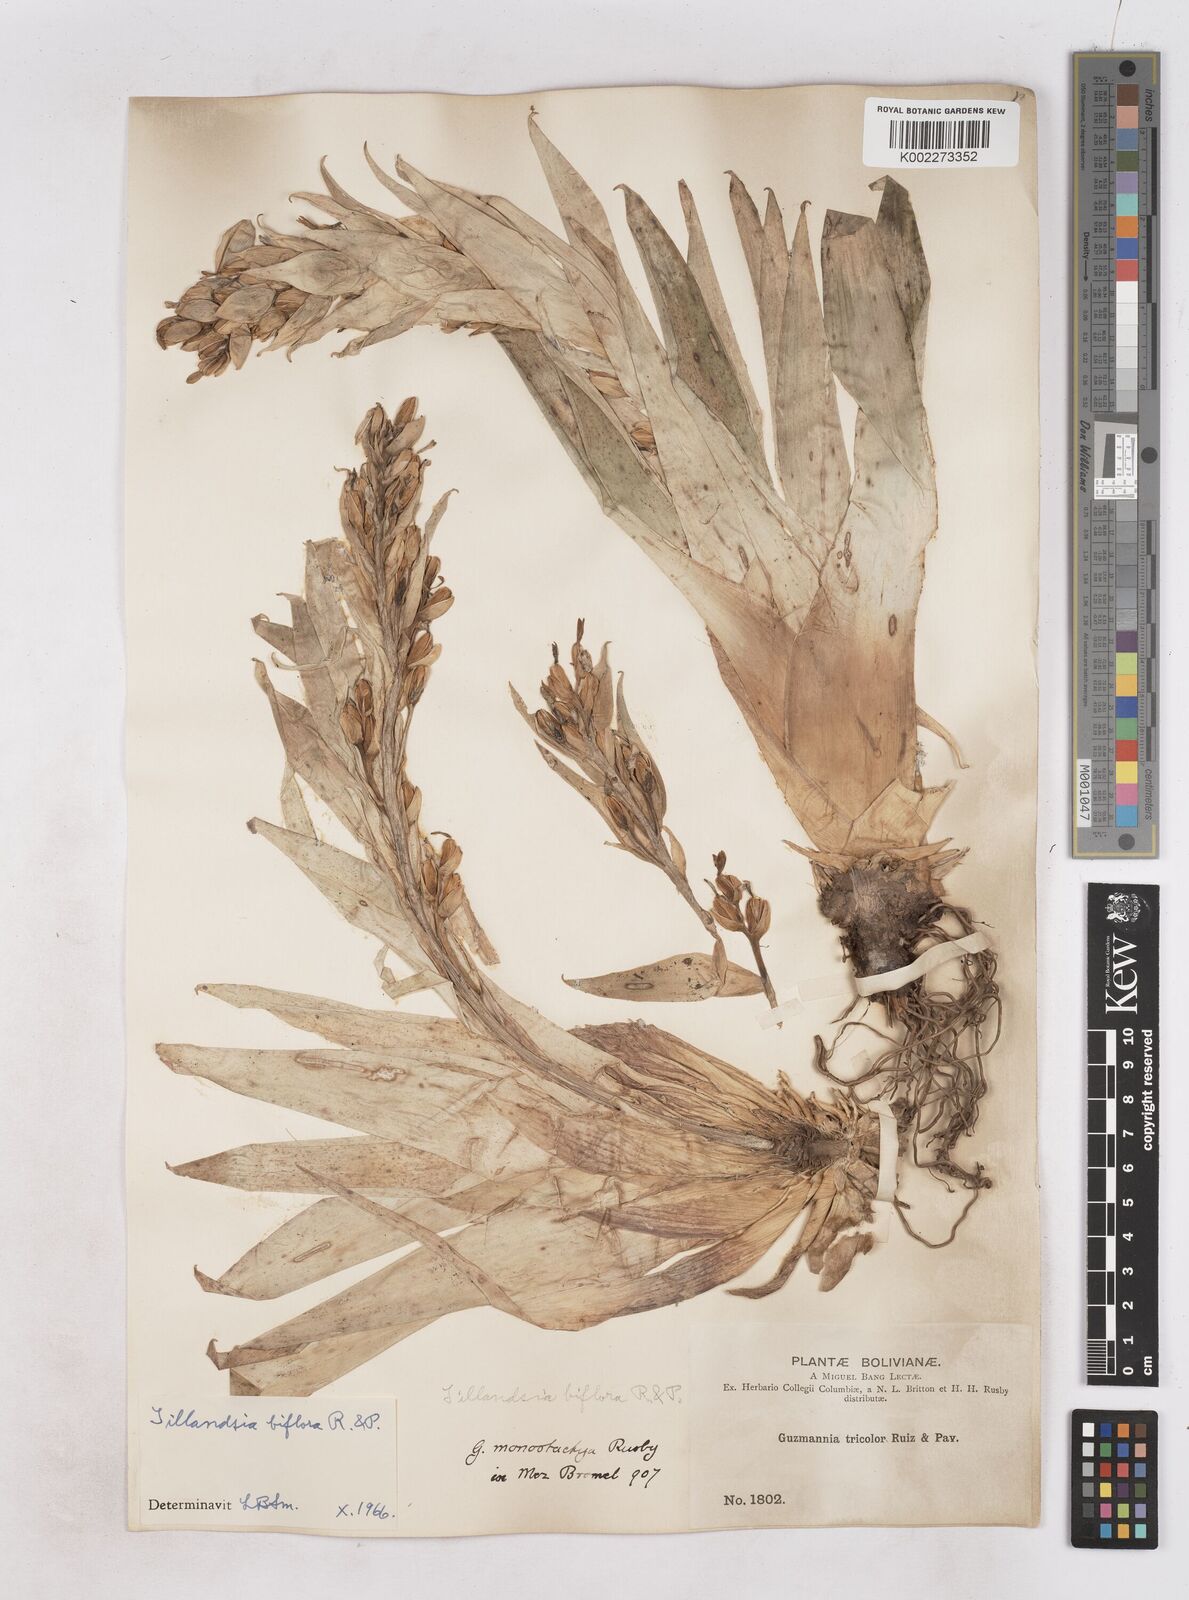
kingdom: Plantae
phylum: Tracheophyta
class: Liliopsida
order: Poales
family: Bromeliaceae
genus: Tillandsia
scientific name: Tillandsia biflora
